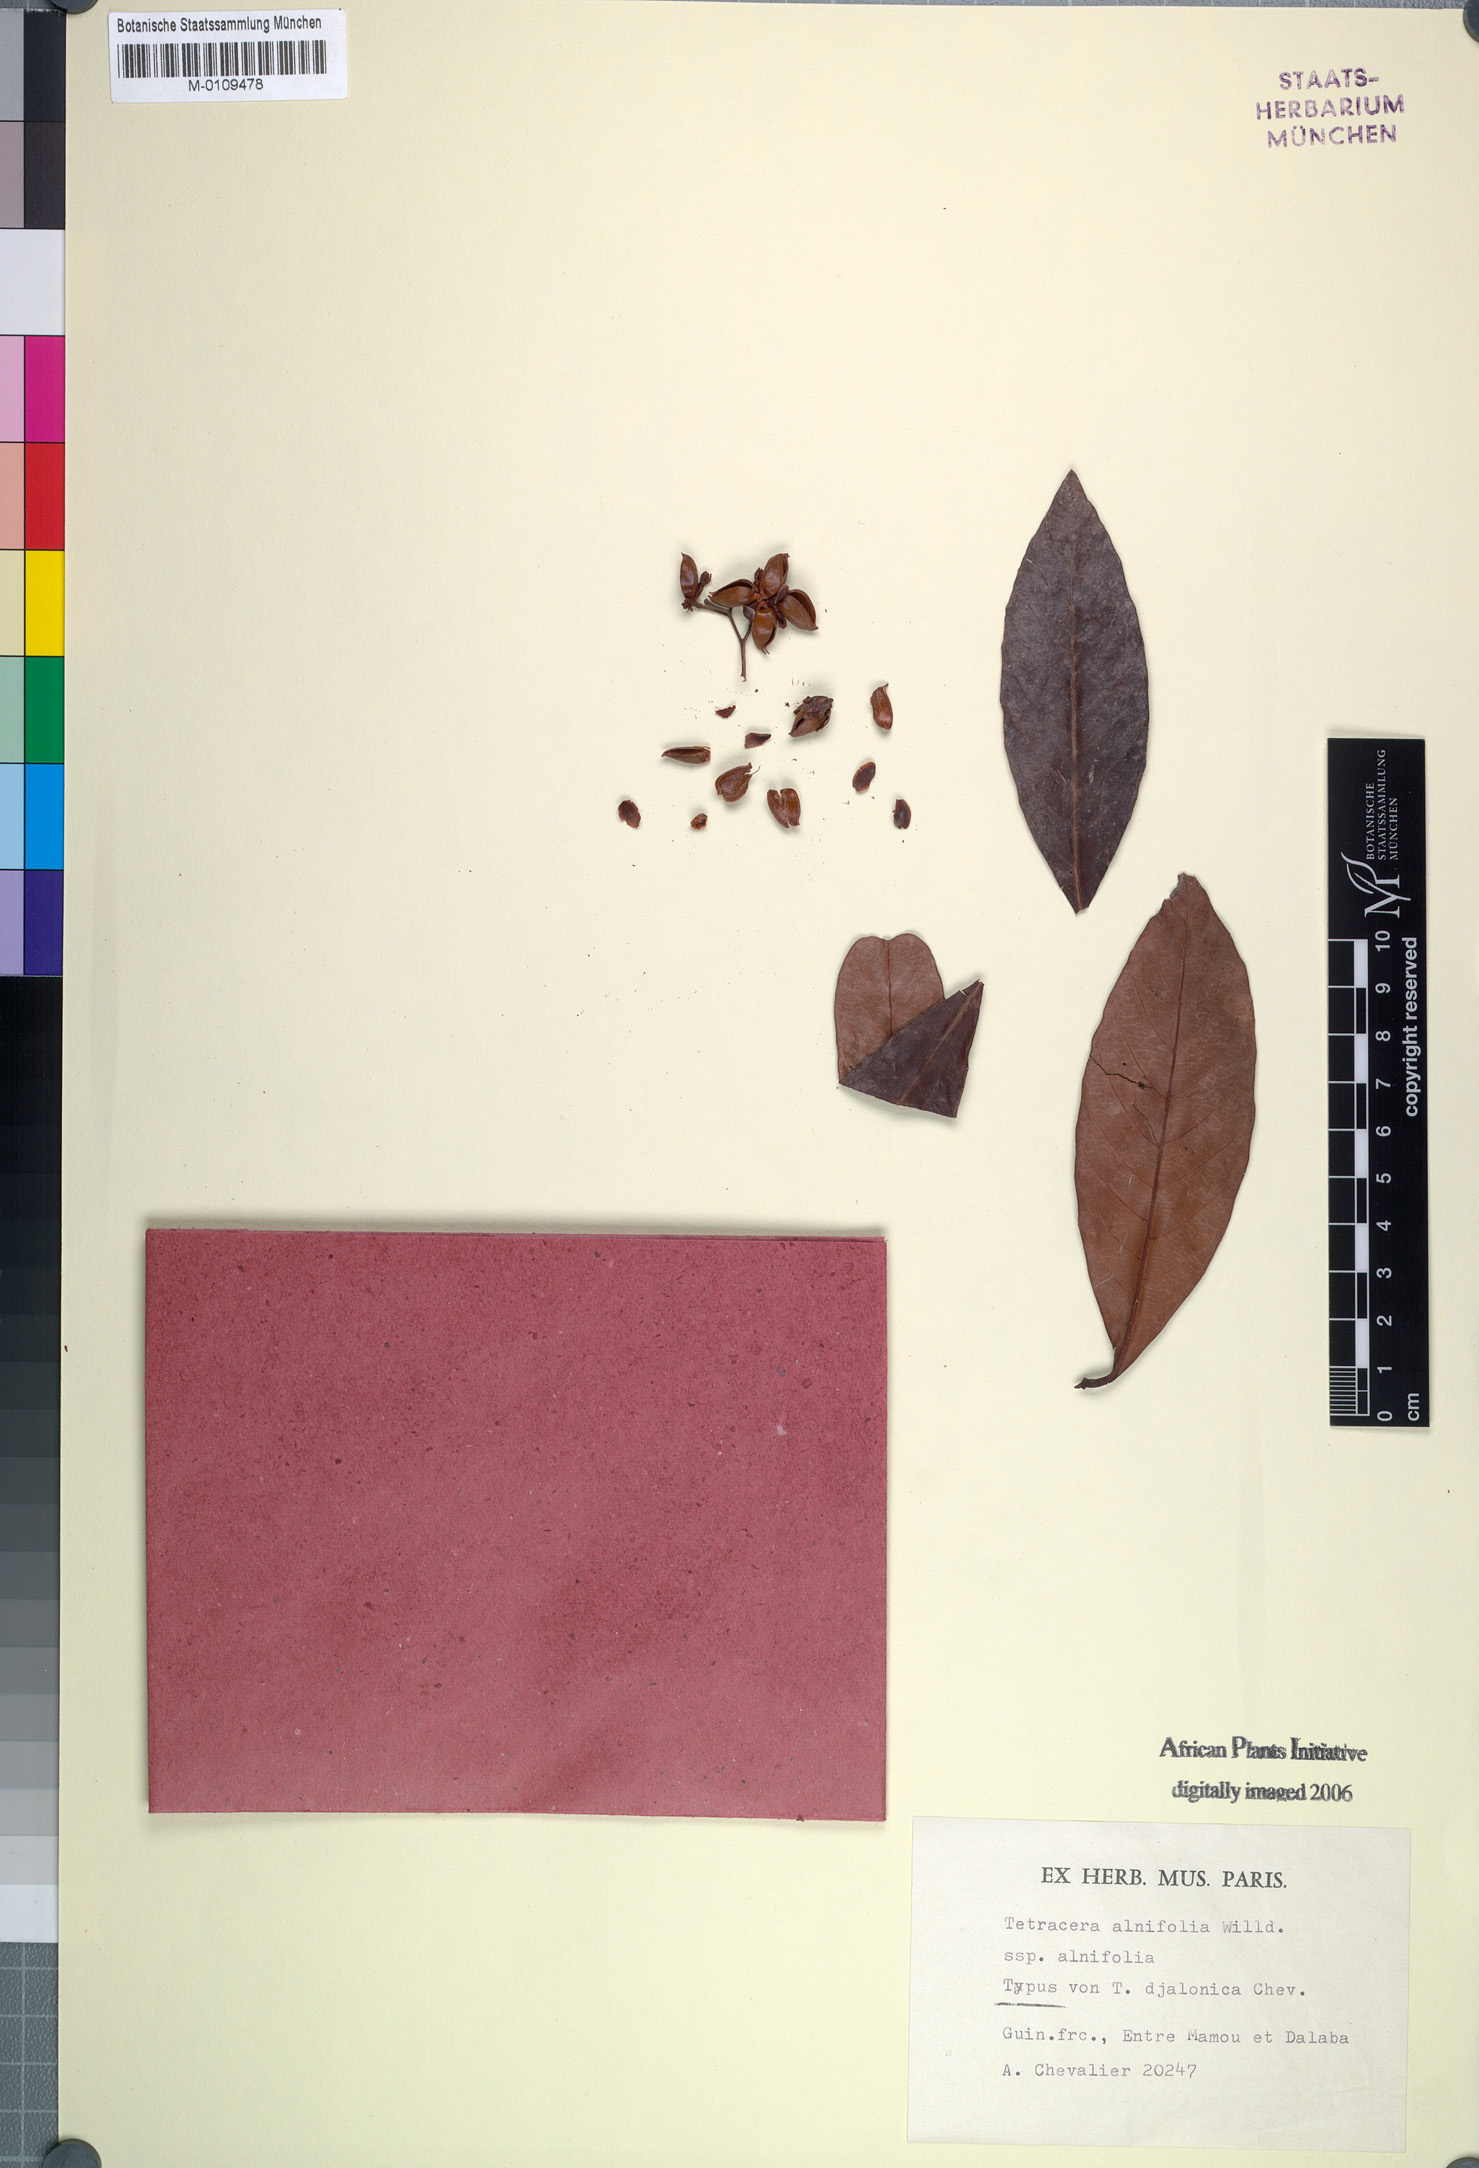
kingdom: Plantae
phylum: Tracheophyta
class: Magnoliopsida
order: Dilleniales
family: Dilleniaceae
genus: Tetracera
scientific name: Tetracera alnifolia
